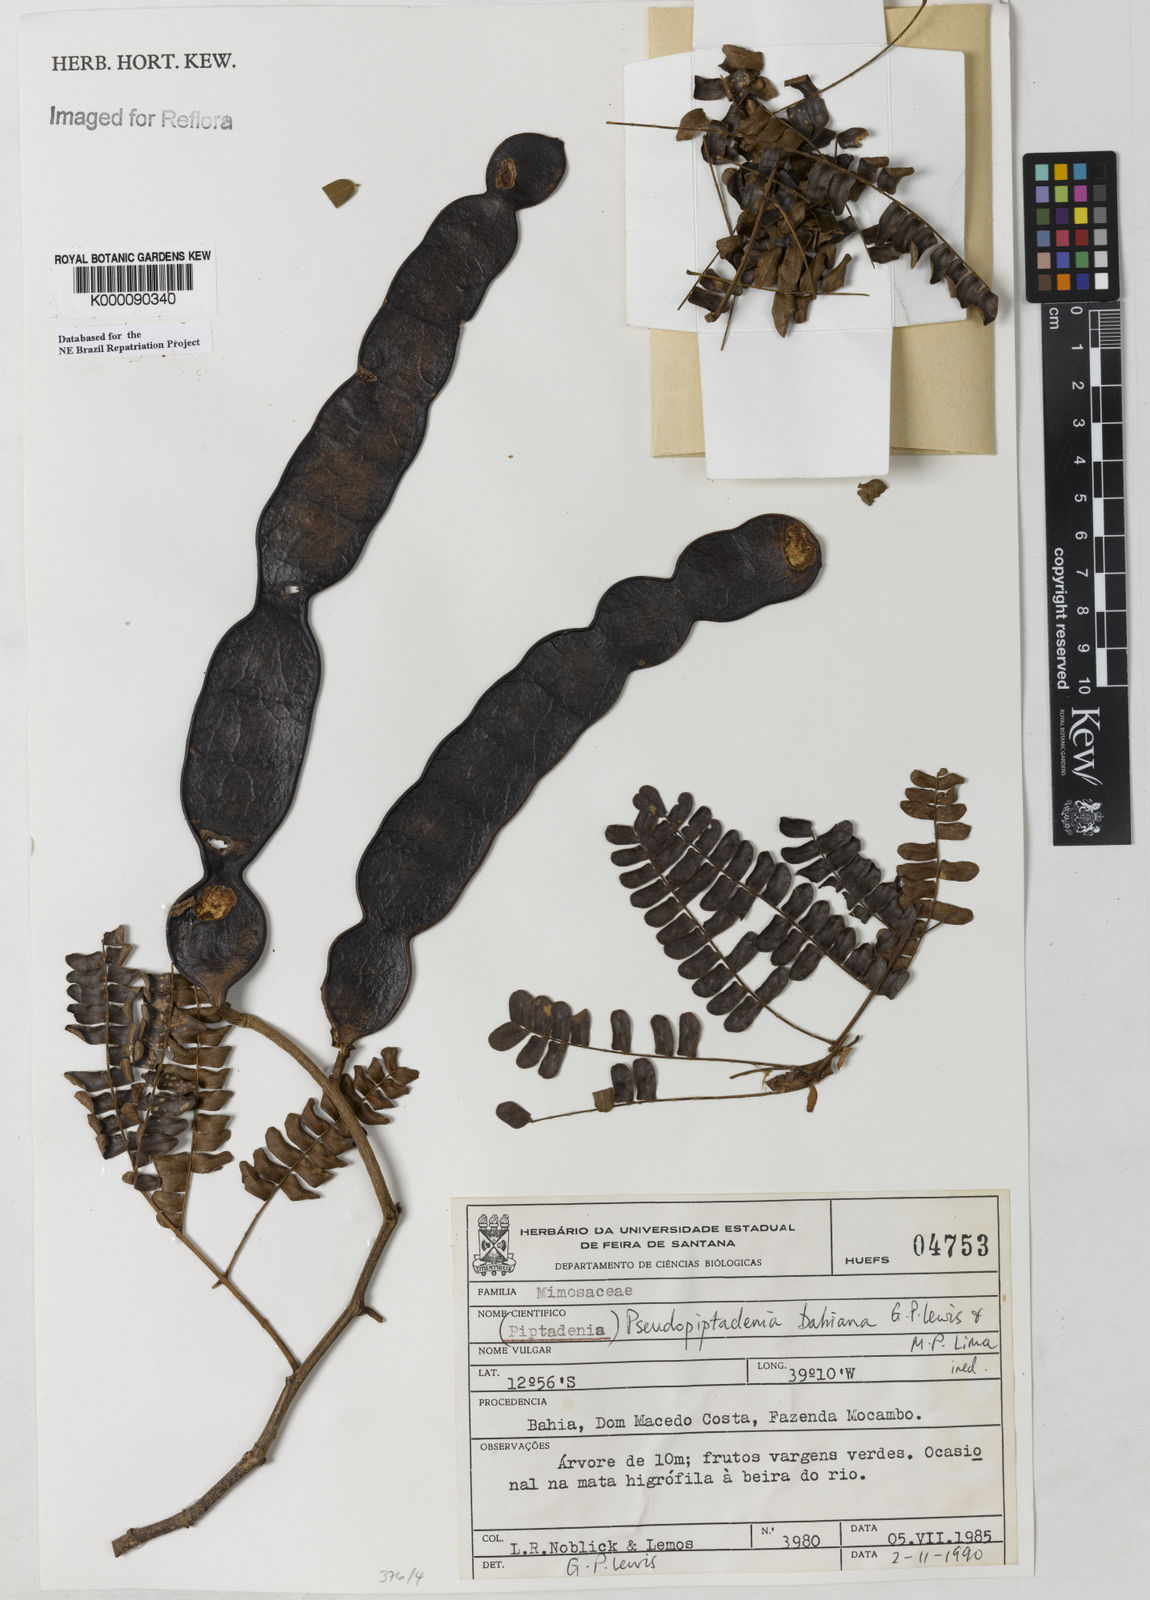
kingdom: Plantae
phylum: Tracheophyta
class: Magnoliopsida
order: Fabales
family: Fabaceae
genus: Pseudopiptadenia
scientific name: Pseudopiptadenia bahiana
